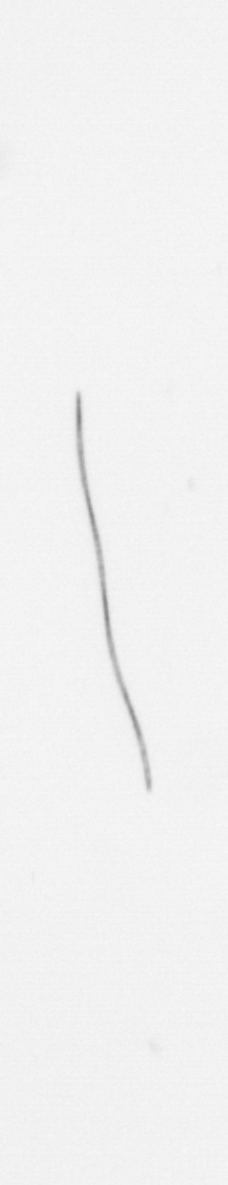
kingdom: Chromista
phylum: Ochrophyta
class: Bacillariophyceae
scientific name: Bacillariophyceae
